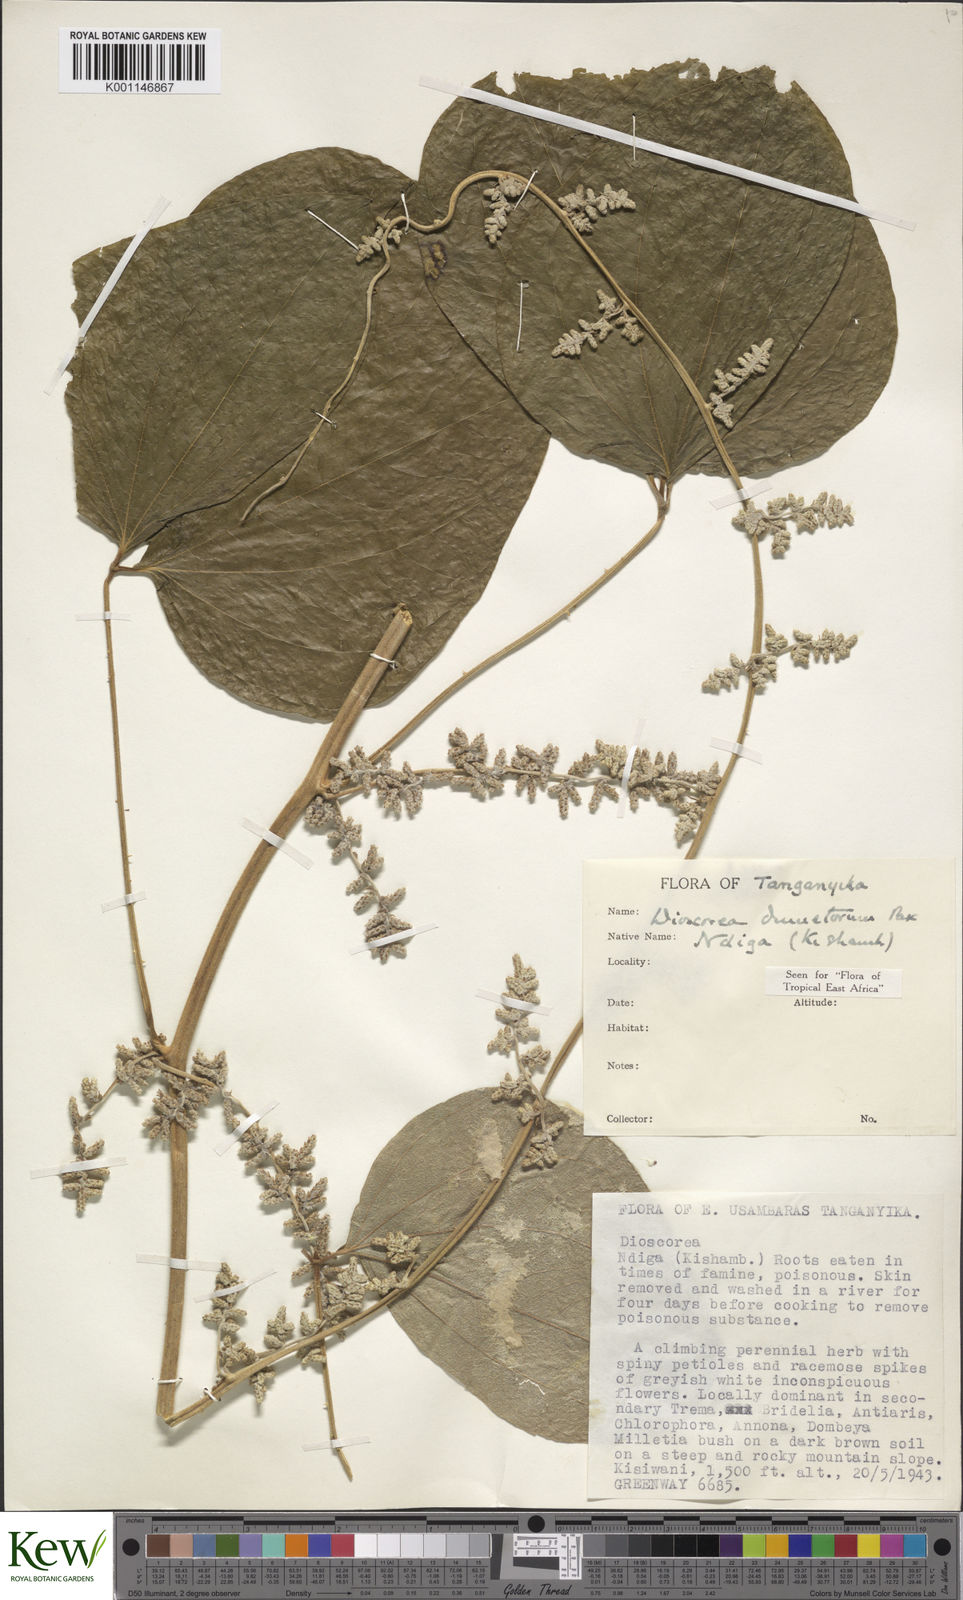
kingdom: Plantae
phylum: Tracheophyta
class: Liliopsida
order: Dioscoreales
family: Dioscoreaceae
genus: Dioscorea
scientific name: Dioscorea dumetorum
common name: African bitter yam
